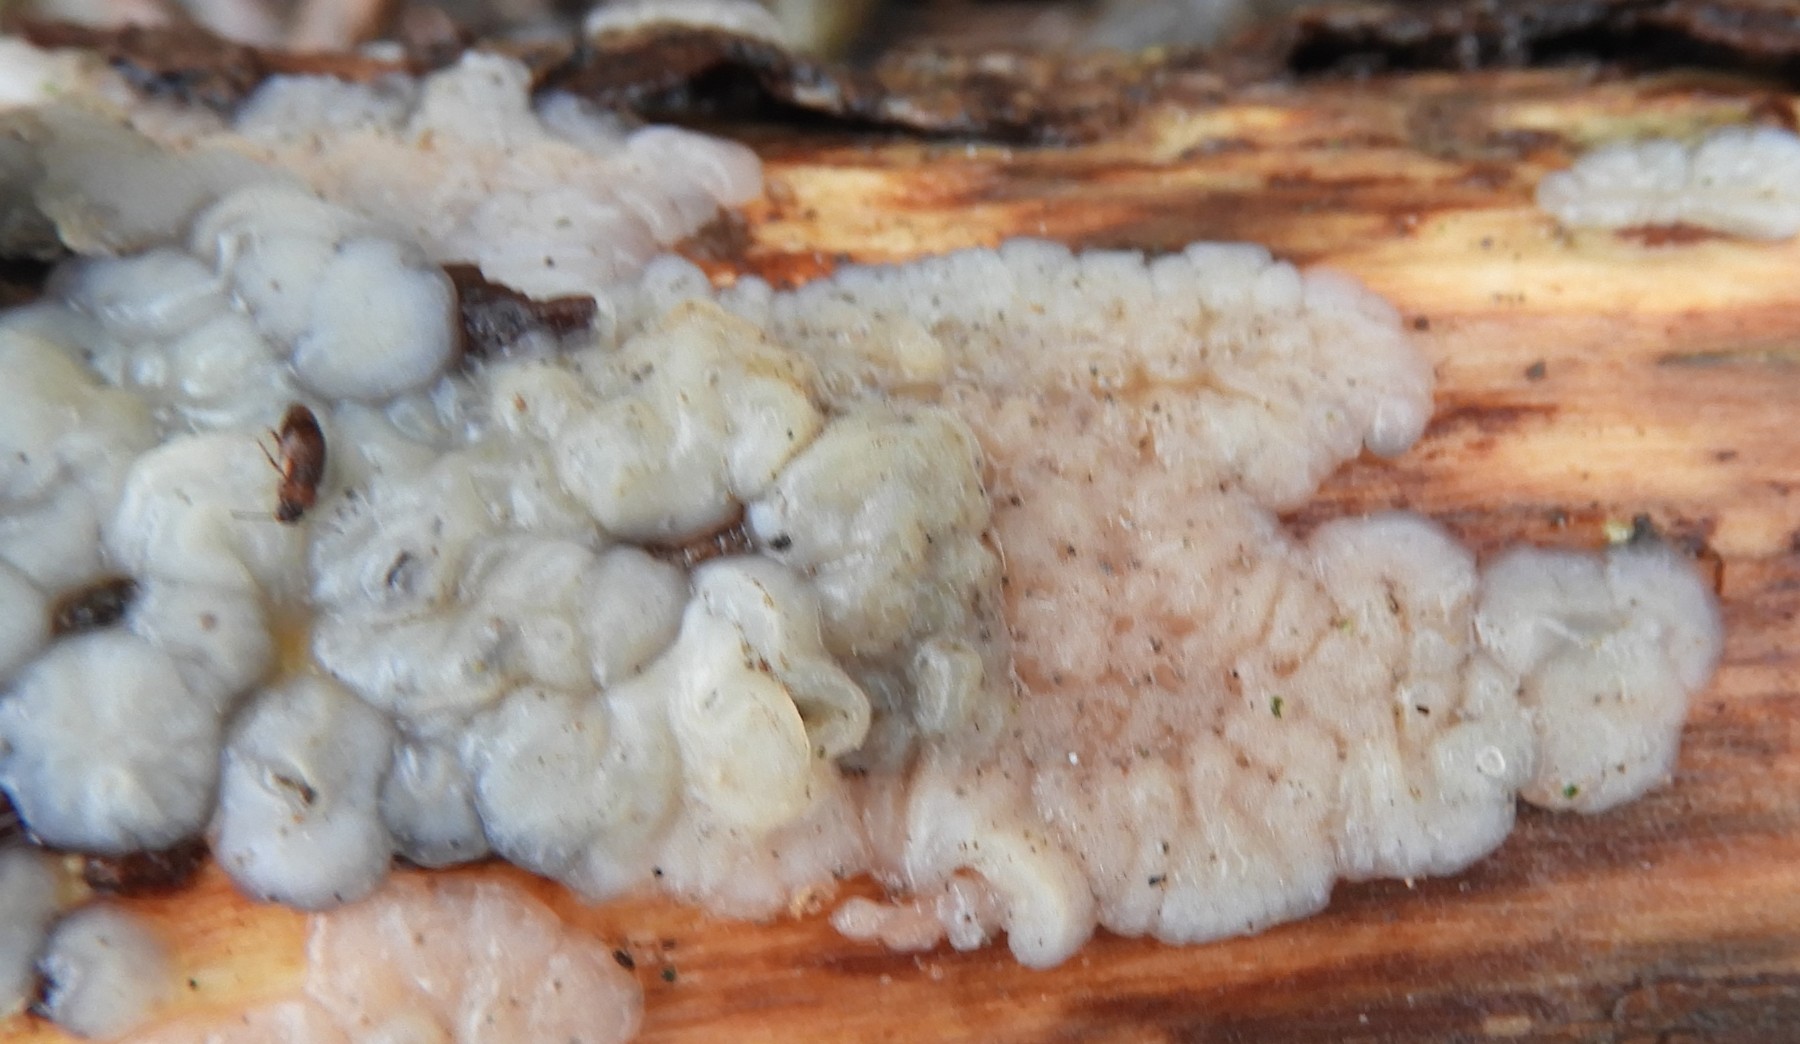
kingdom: Fungi
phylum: Basidiomycota
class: Agaricomycetes
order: Auriculariales
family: Auriculariaceae
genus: Exidia
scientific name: Exidia thuretiana
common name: hvidlig bævretop
